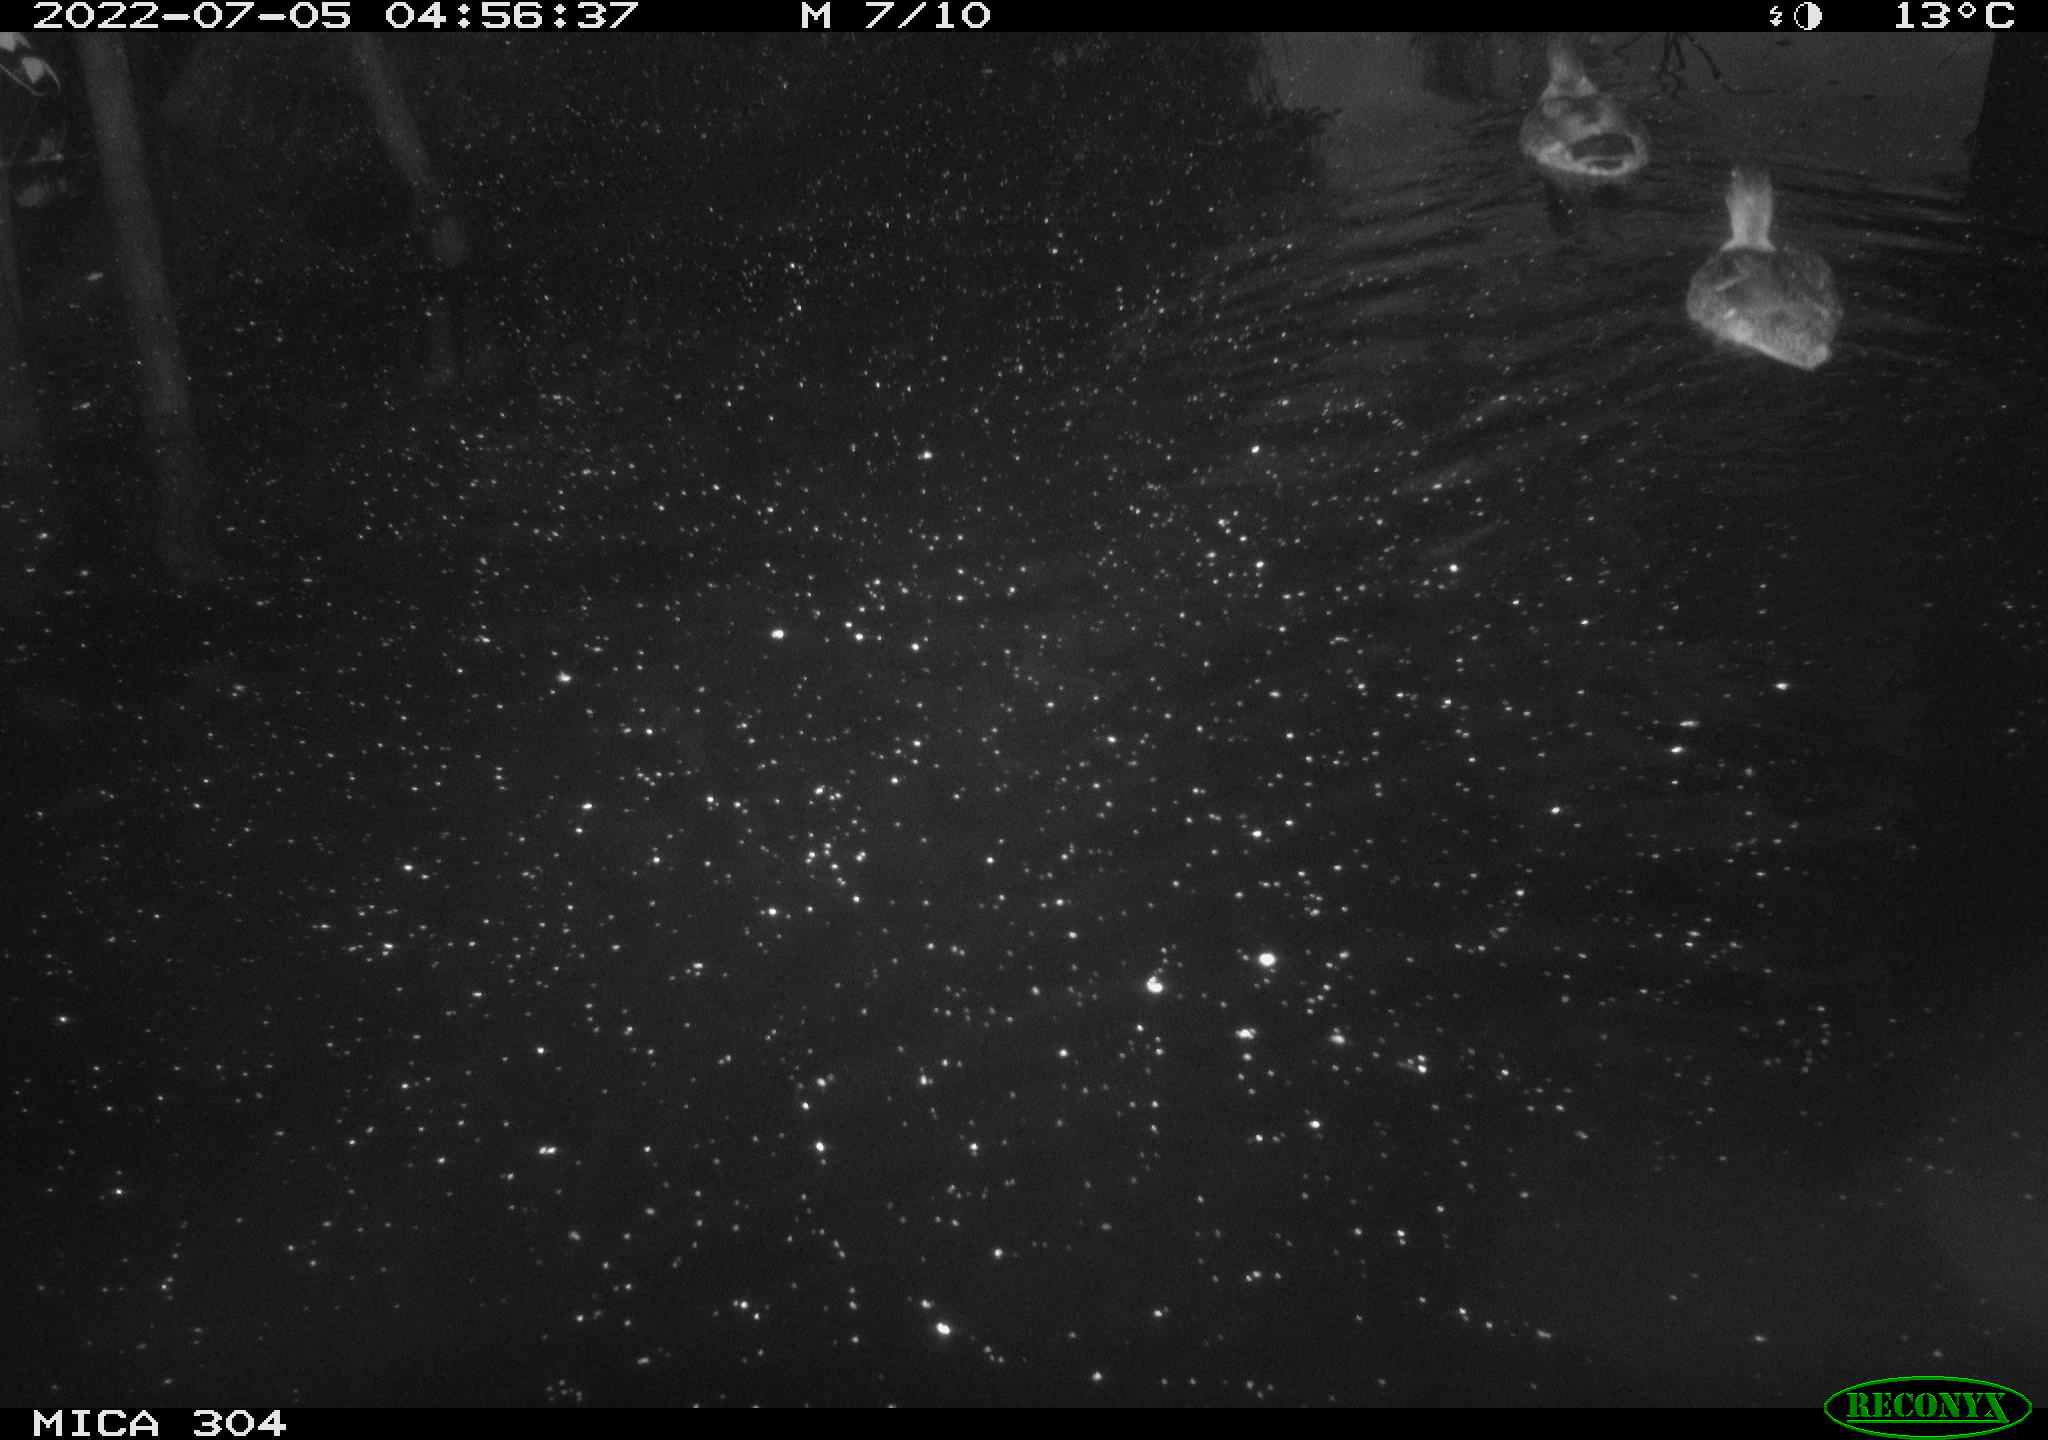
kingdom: Animalia
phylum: Chordata
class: Aves
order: Anseriformes
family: Anatidae
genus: Anas
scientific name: Anas platyrhynchos
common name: Mallard
